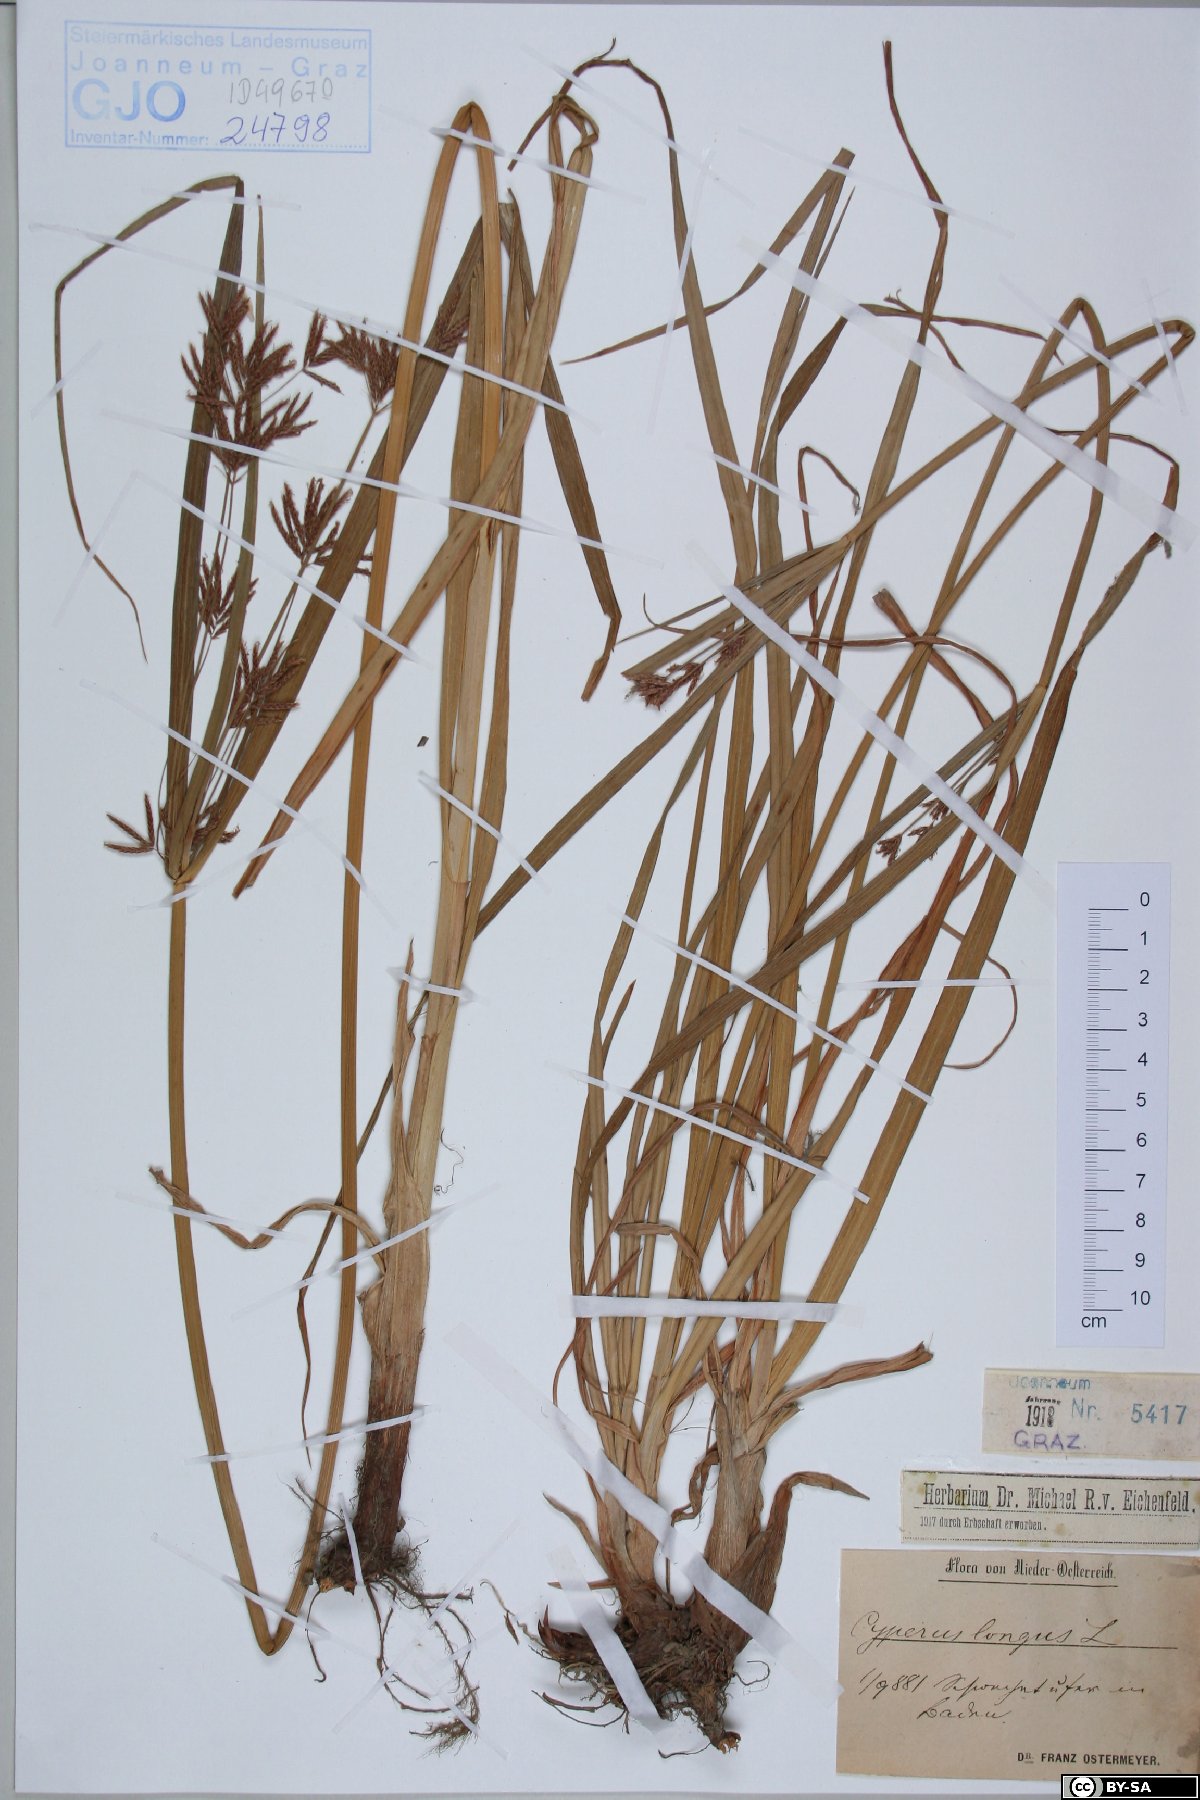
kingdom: Plantae
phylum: Tracheophyta
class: Liliopsida
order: Poales
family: Cyperaceae
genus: Cyperus
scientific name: Cyperus longus
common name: Galingale
